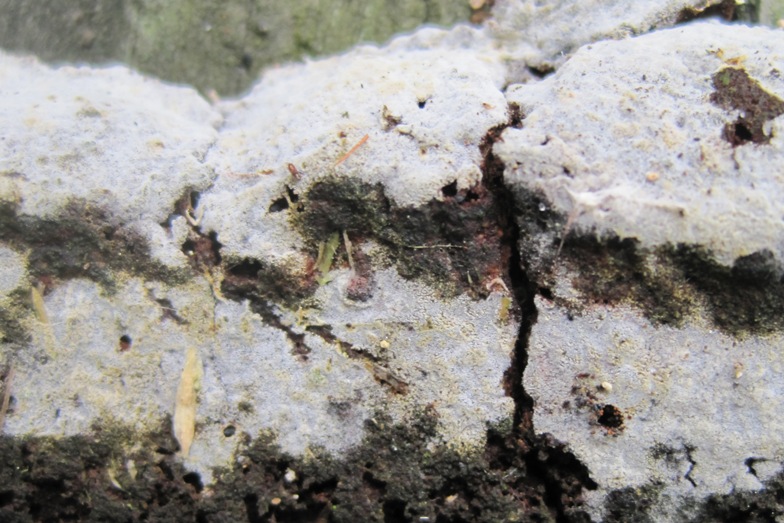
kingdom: Fungi
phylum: Basidiomycota
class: Agaricomycetes
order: Cantharellales
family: Botryobasidiaceae
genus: Botryobasidium
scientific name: Botryobasidium danicum
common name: dansk spindhinde
